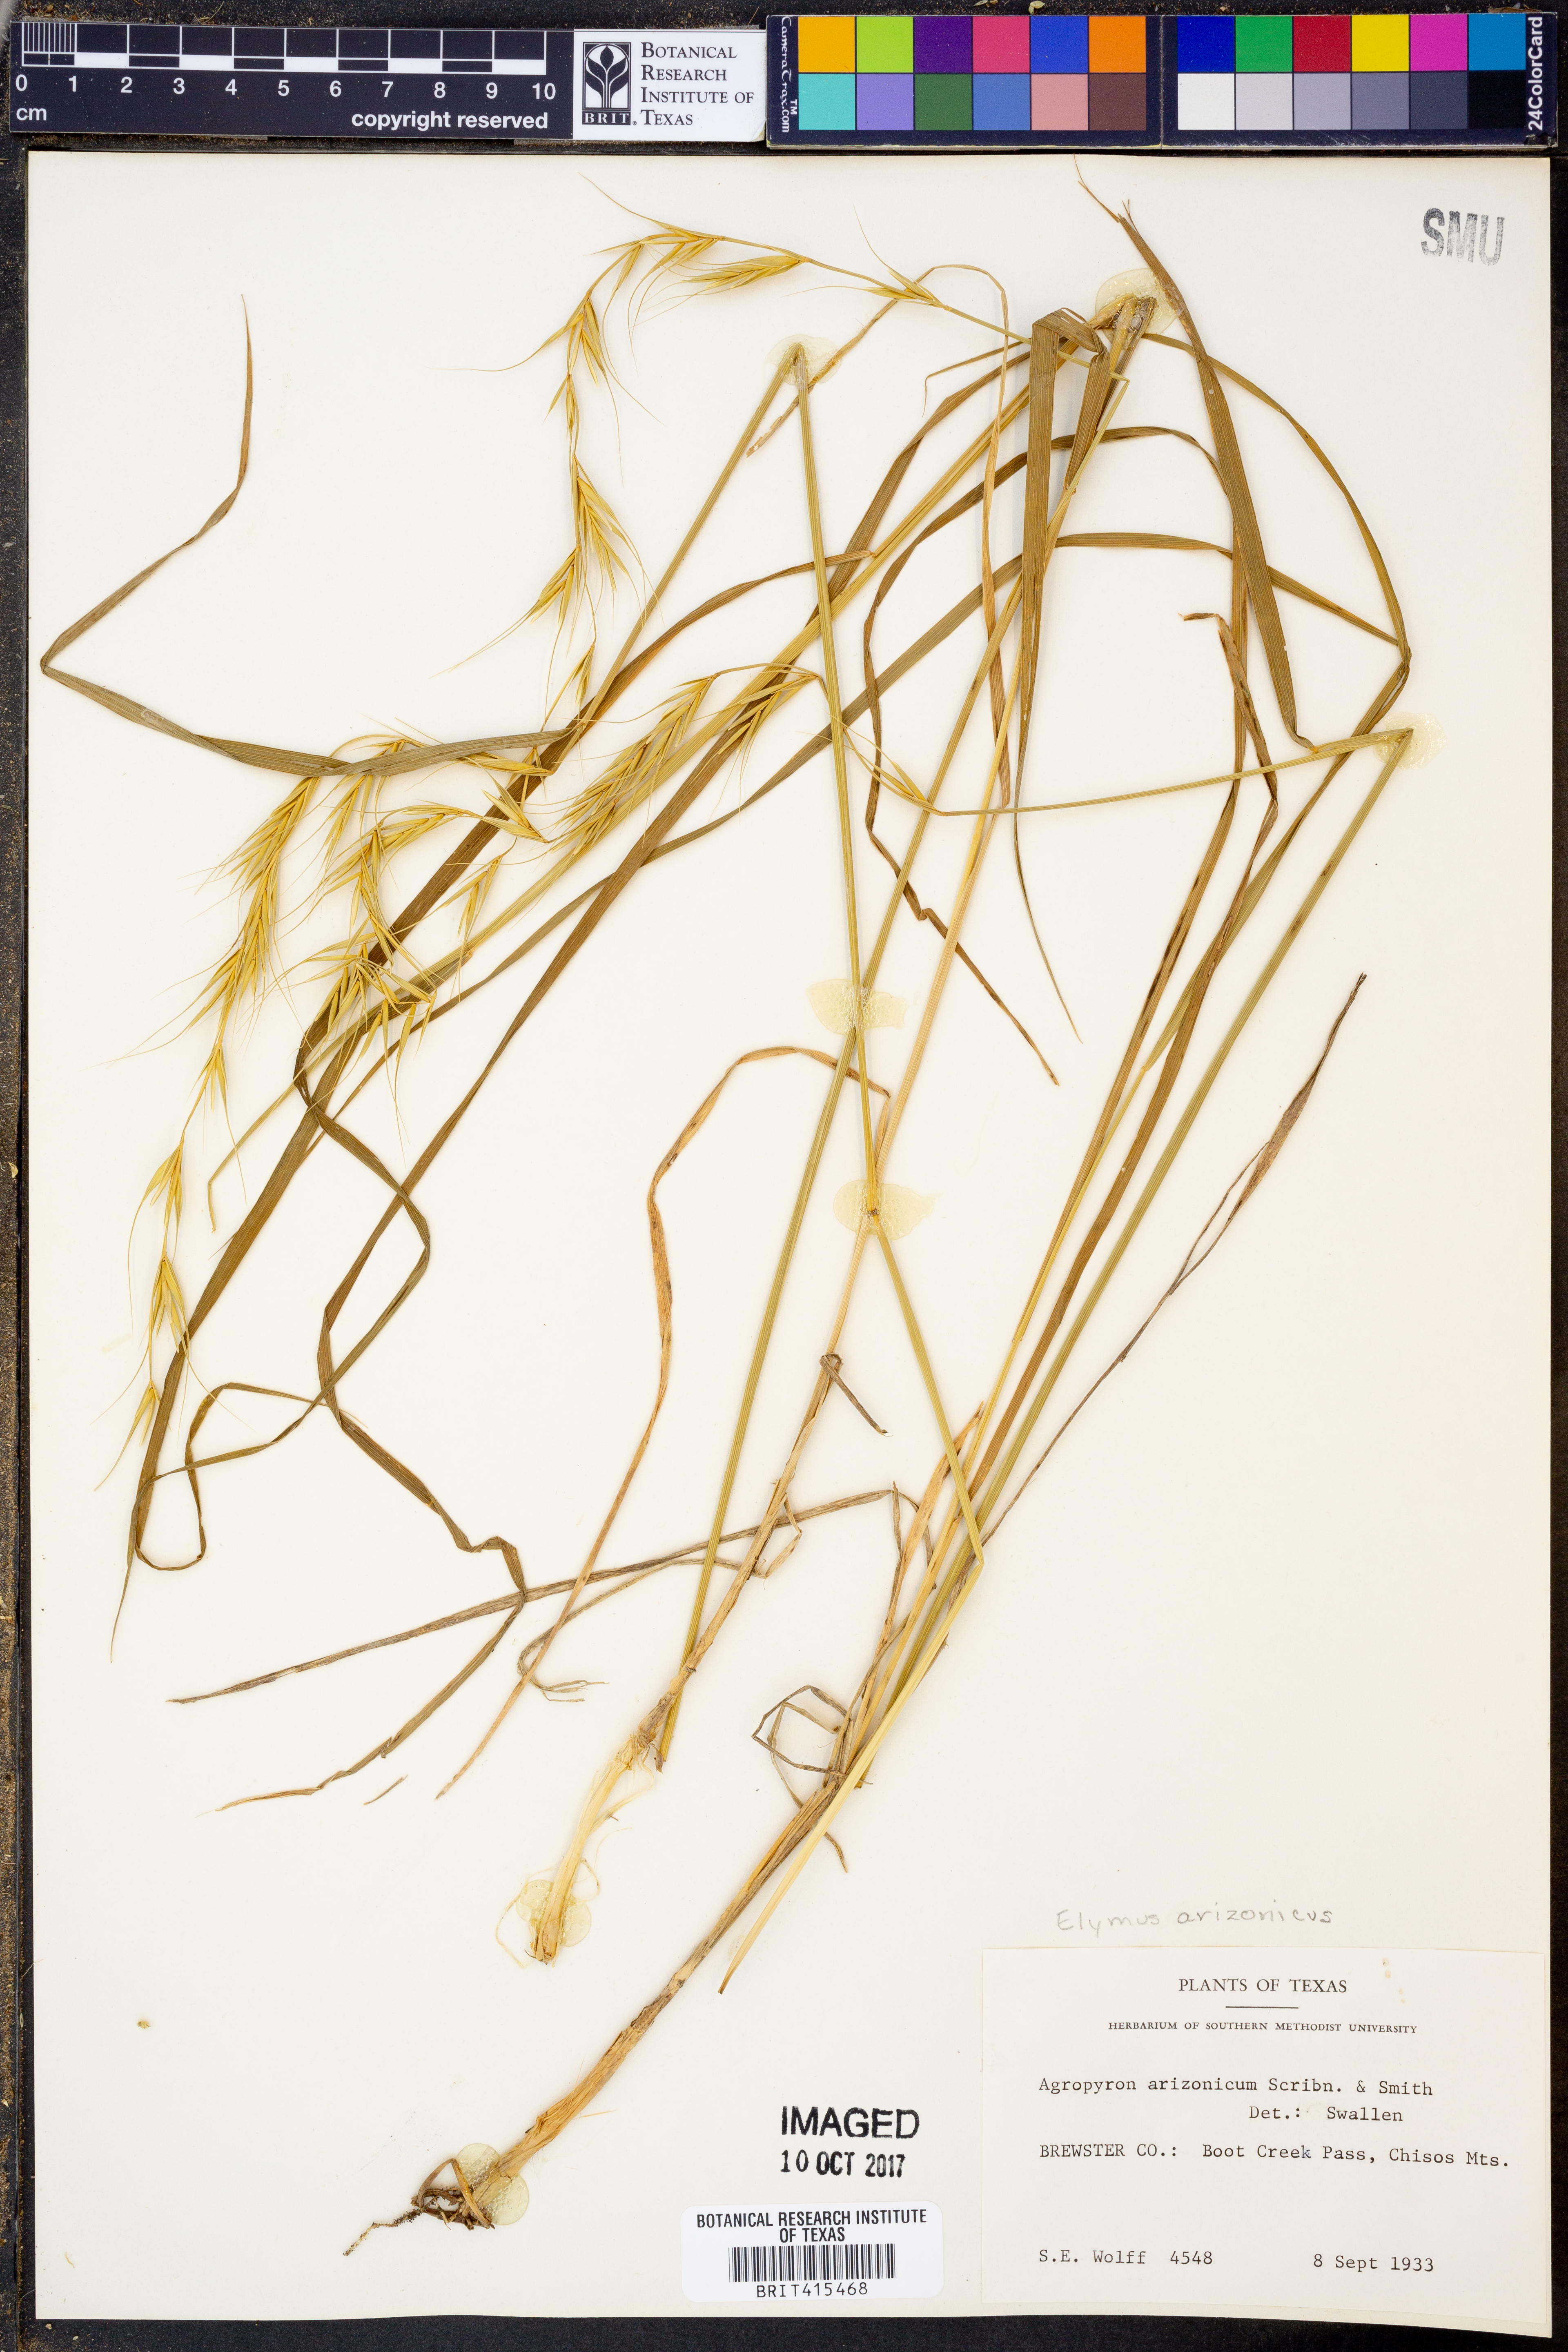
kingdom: Plantae
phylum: Tracheophyta
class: Liliopsida
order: Poales
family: Poaceae
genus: Elymus
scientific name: Elymus arizonicus
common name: Arizona wheatgrass
